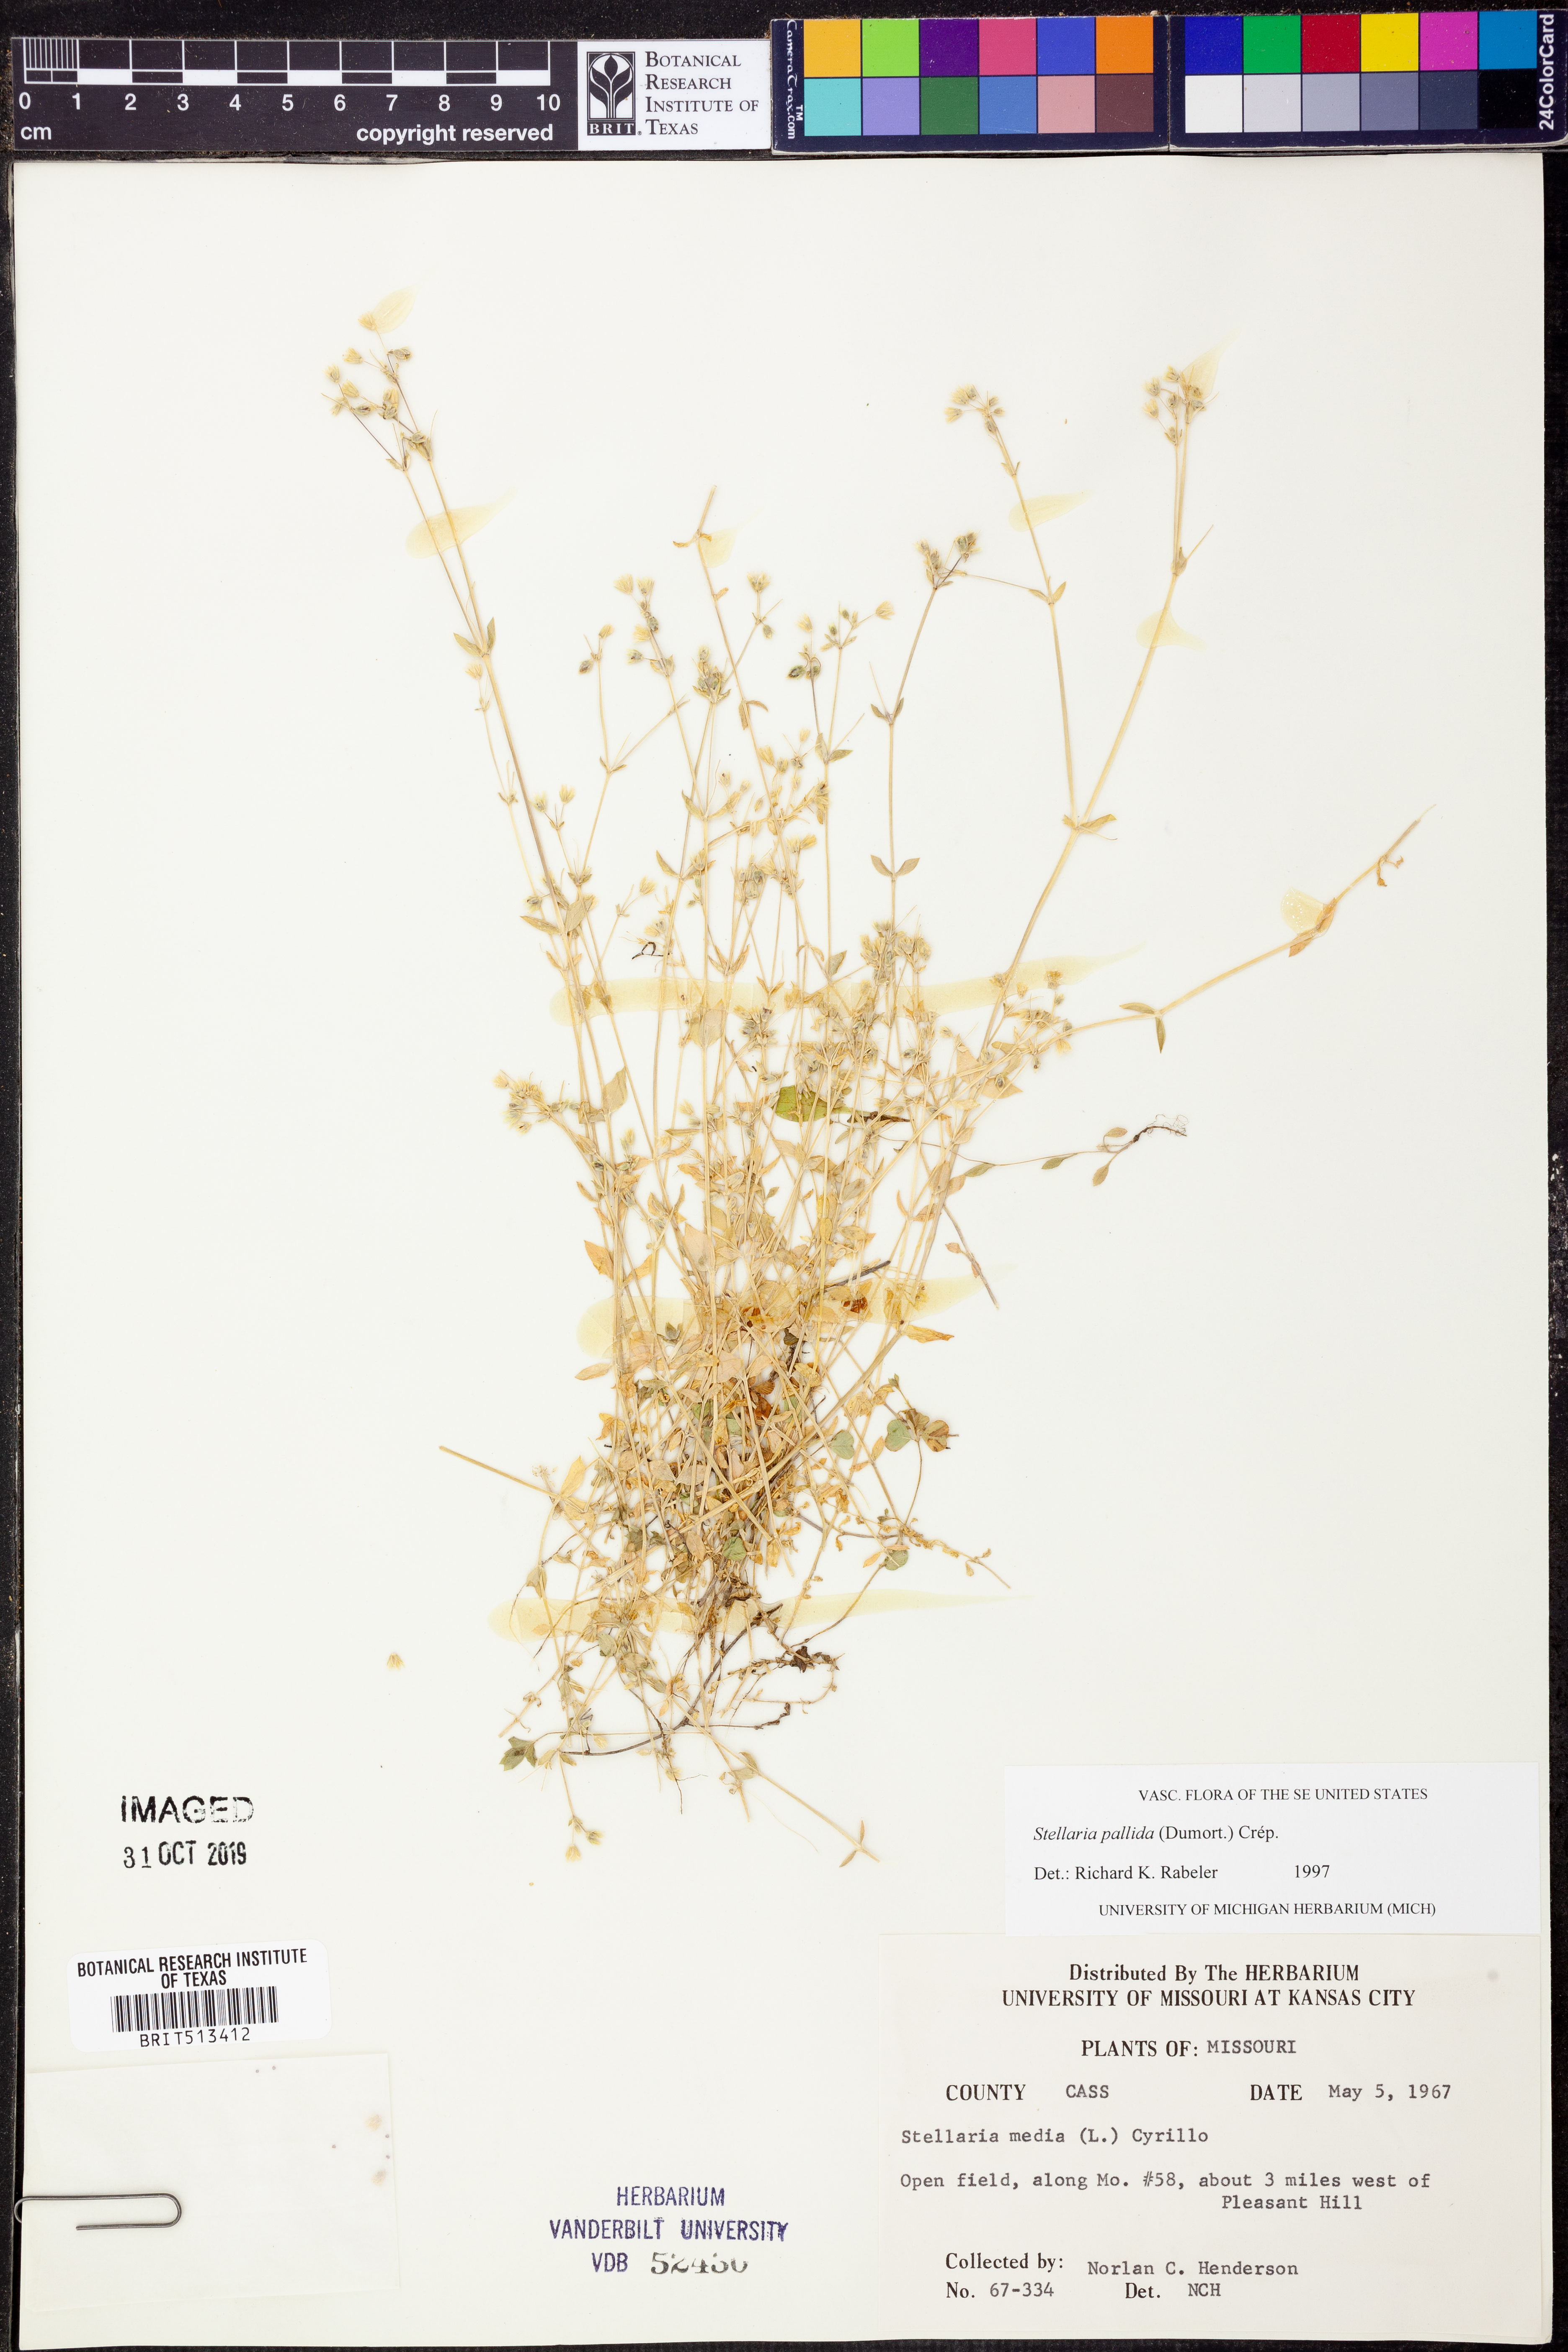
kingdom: Plantae
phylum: Tracheophyta
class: Magnoliopsida
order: Caryophyllales
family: Caryophyllaceae
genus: Stellaria
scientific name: Stellaria apetala
